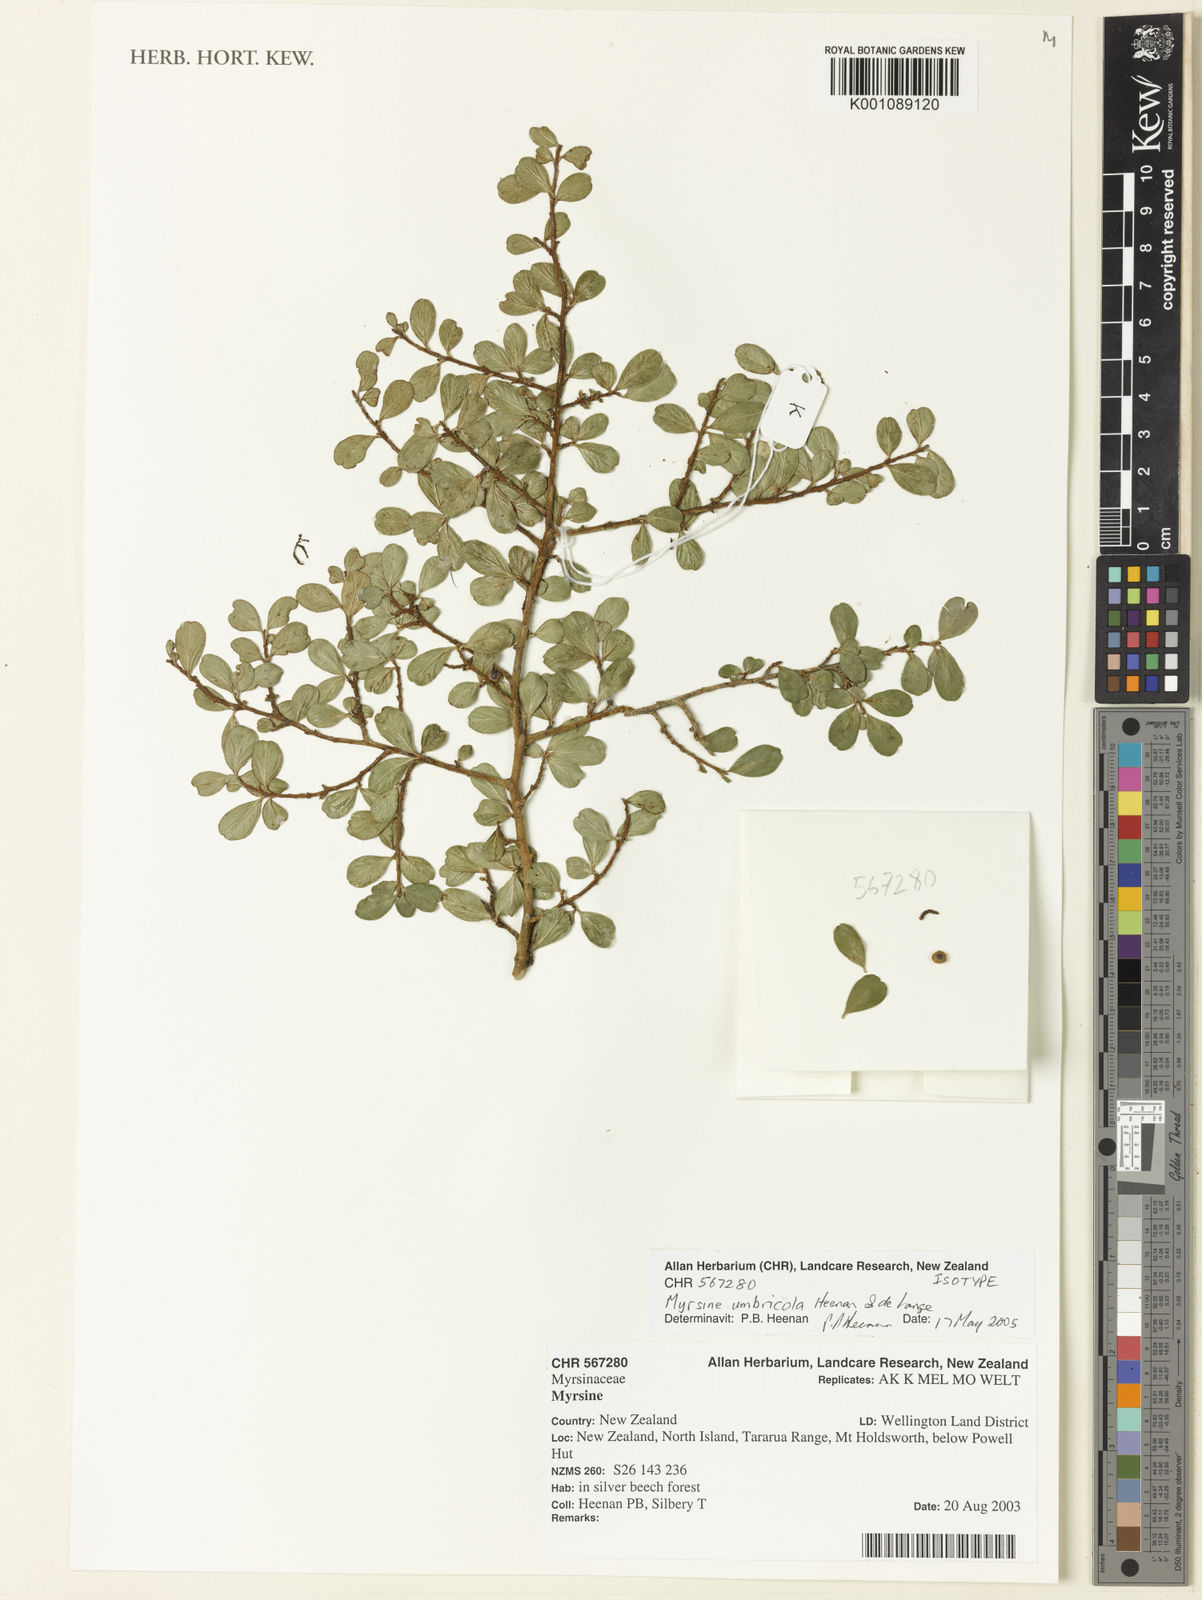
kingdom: Plantae
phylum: Tracheophyta
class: Magnoliopsida
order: Ericales
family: Primulaceae
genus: Myrsine
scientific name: Myrsine umbricola
